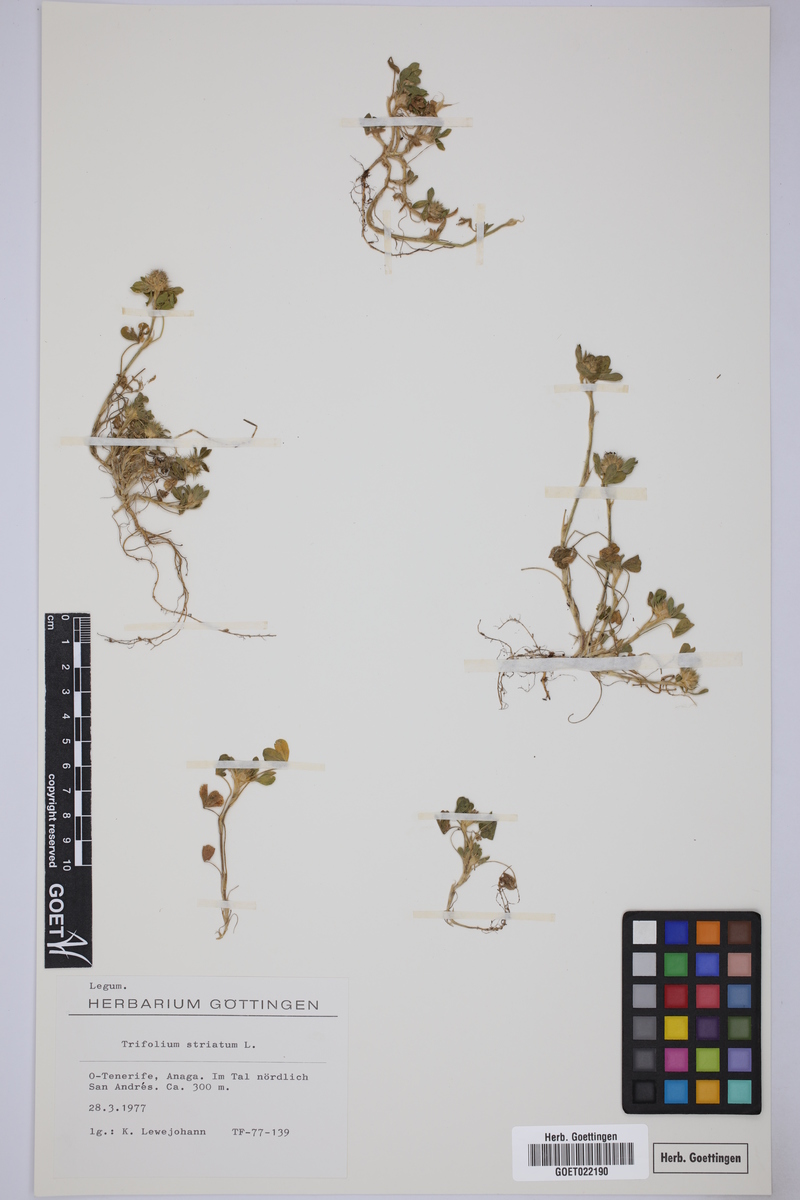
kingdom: Plantae
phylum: Tracheophyta
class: Magnoliopsida
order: Fabales
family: Fabaceae
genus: Trifolium
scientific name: Trifolium striatum
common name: Knotted clover
